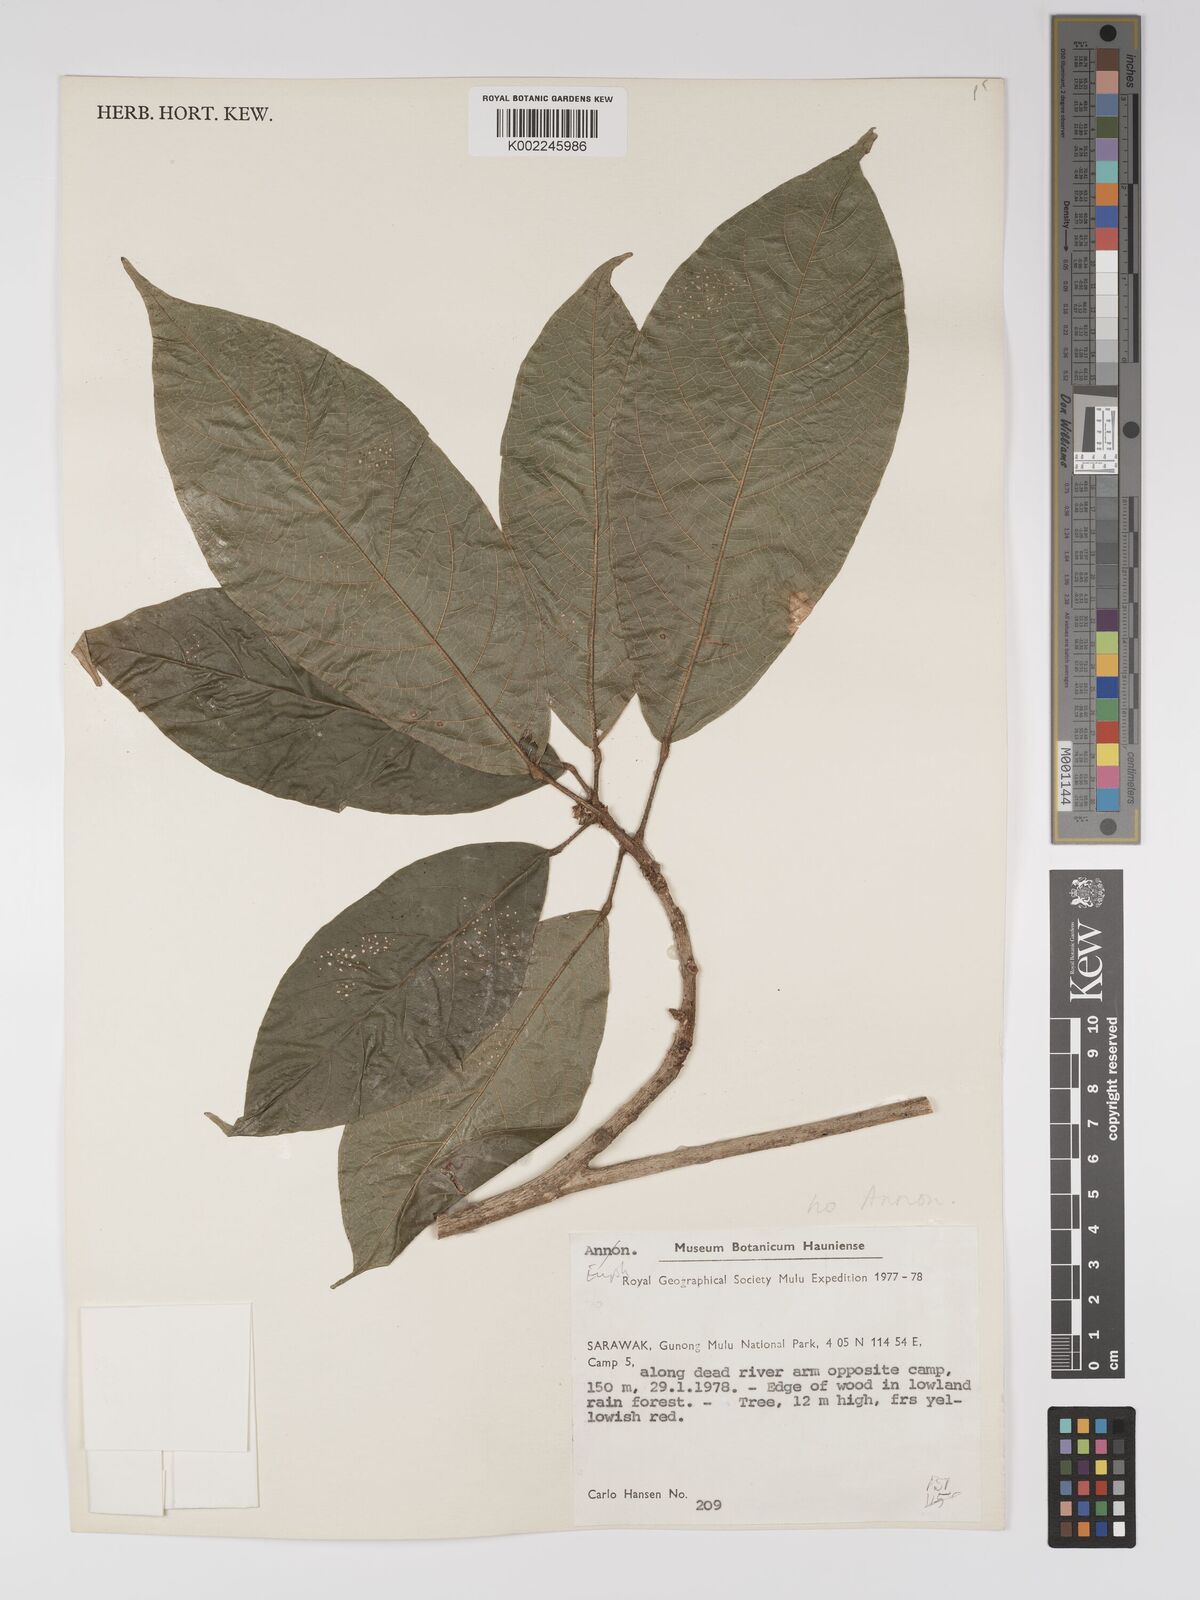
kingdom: Plantae
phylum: Tracheophyta
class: Magnoliopsida
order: Malpighiales
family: Euphorbiaceae
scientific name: Euphorbiaceae
